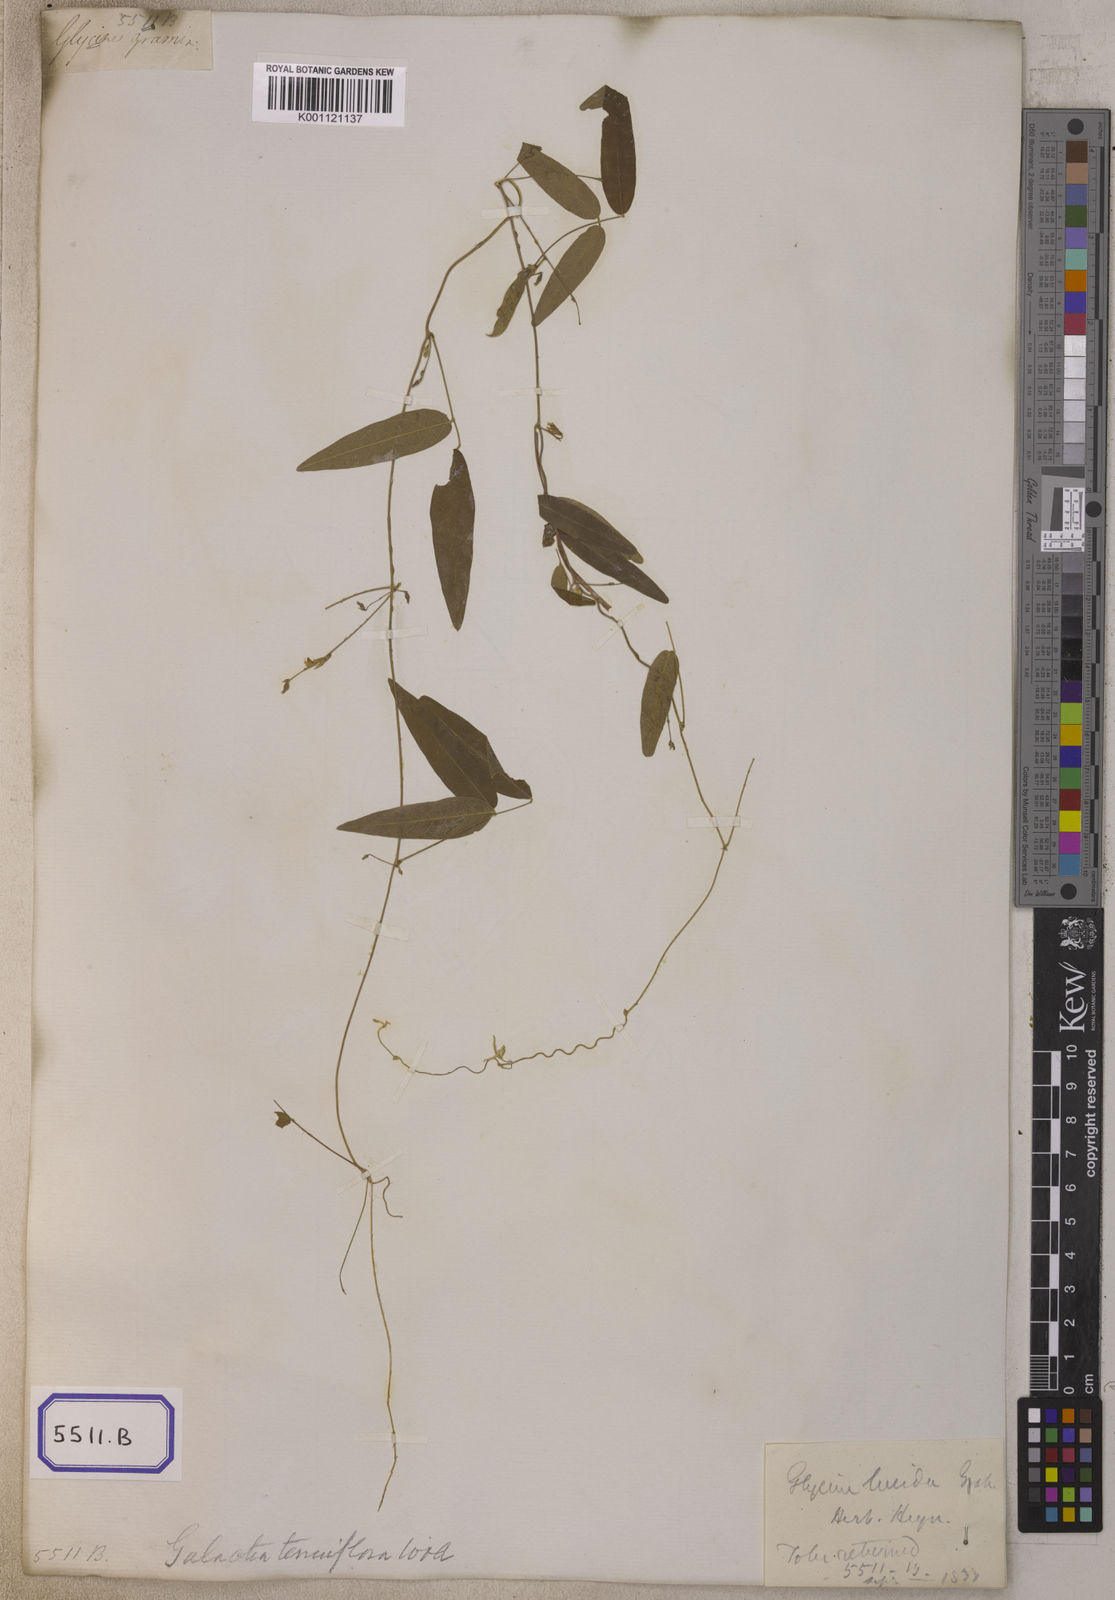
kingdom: Plantae
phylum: Tracheophyta
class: Magnoliopsida
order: Fabales
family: Fabaceae
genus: Glycine
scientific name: Glycine
